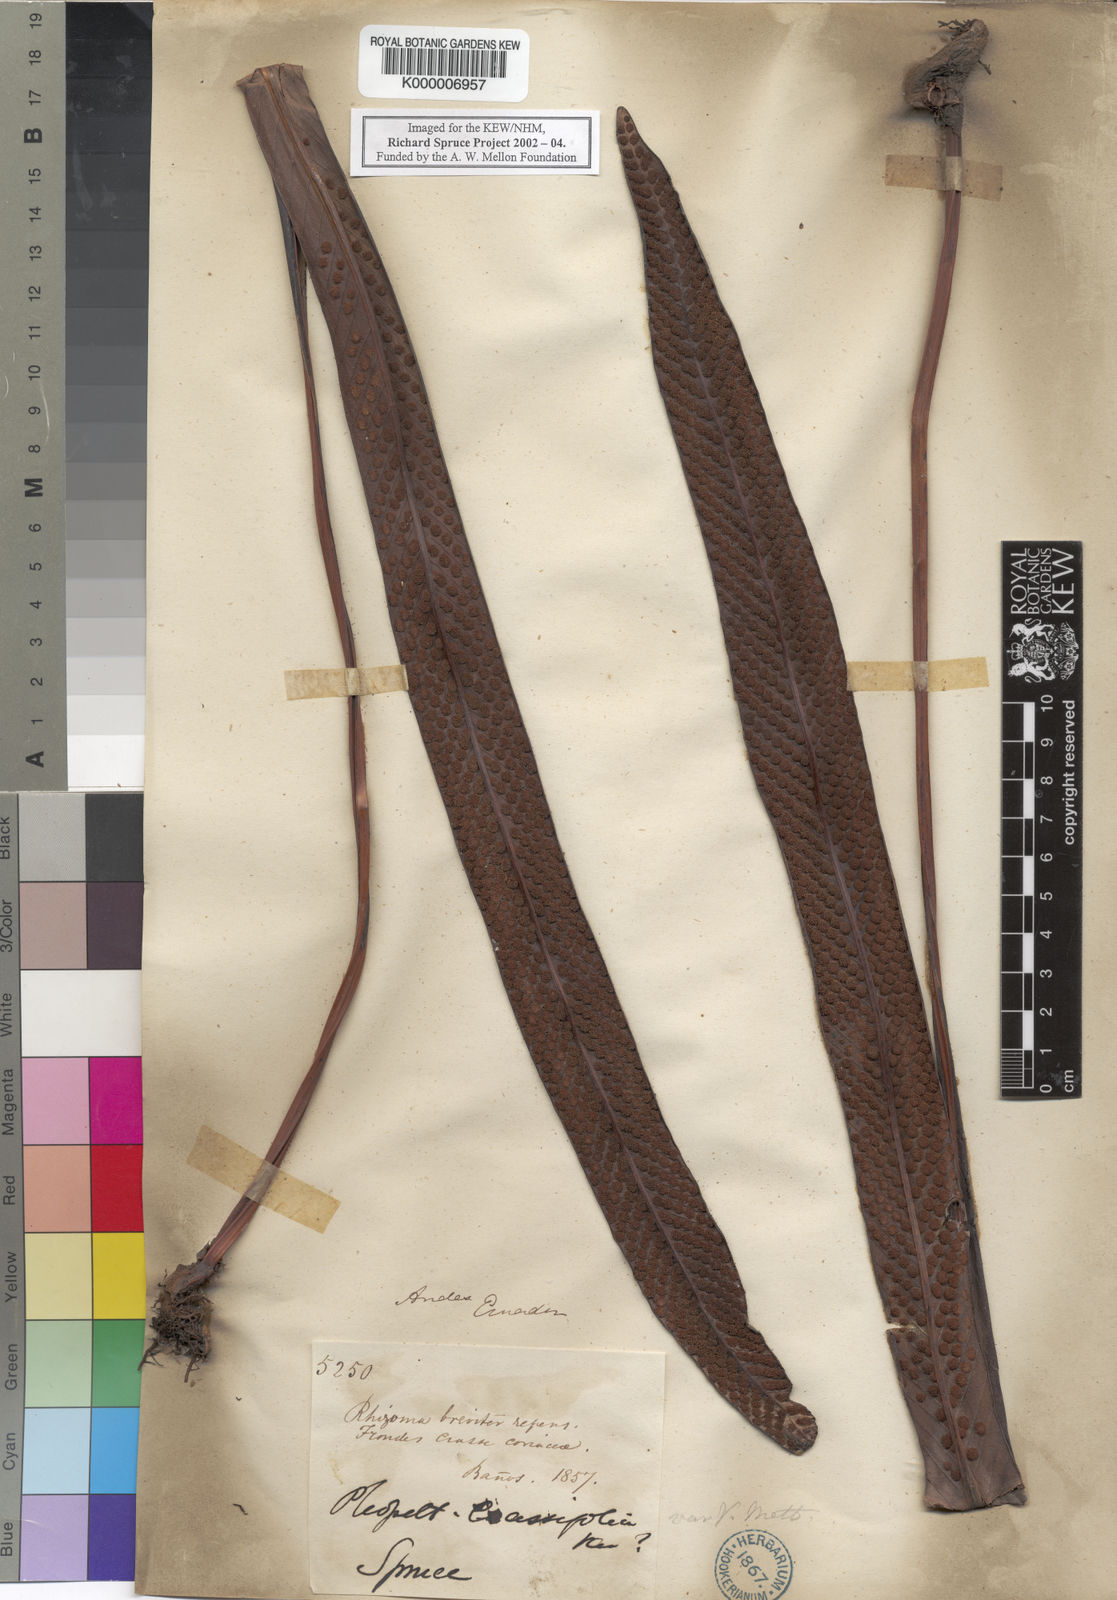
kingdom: Plantae
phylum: Tracheophyta
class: Polypodiopsida
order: Polypodiales
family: Polypodiaceae
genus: Niphidium
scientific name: Niphidium crassifolium
